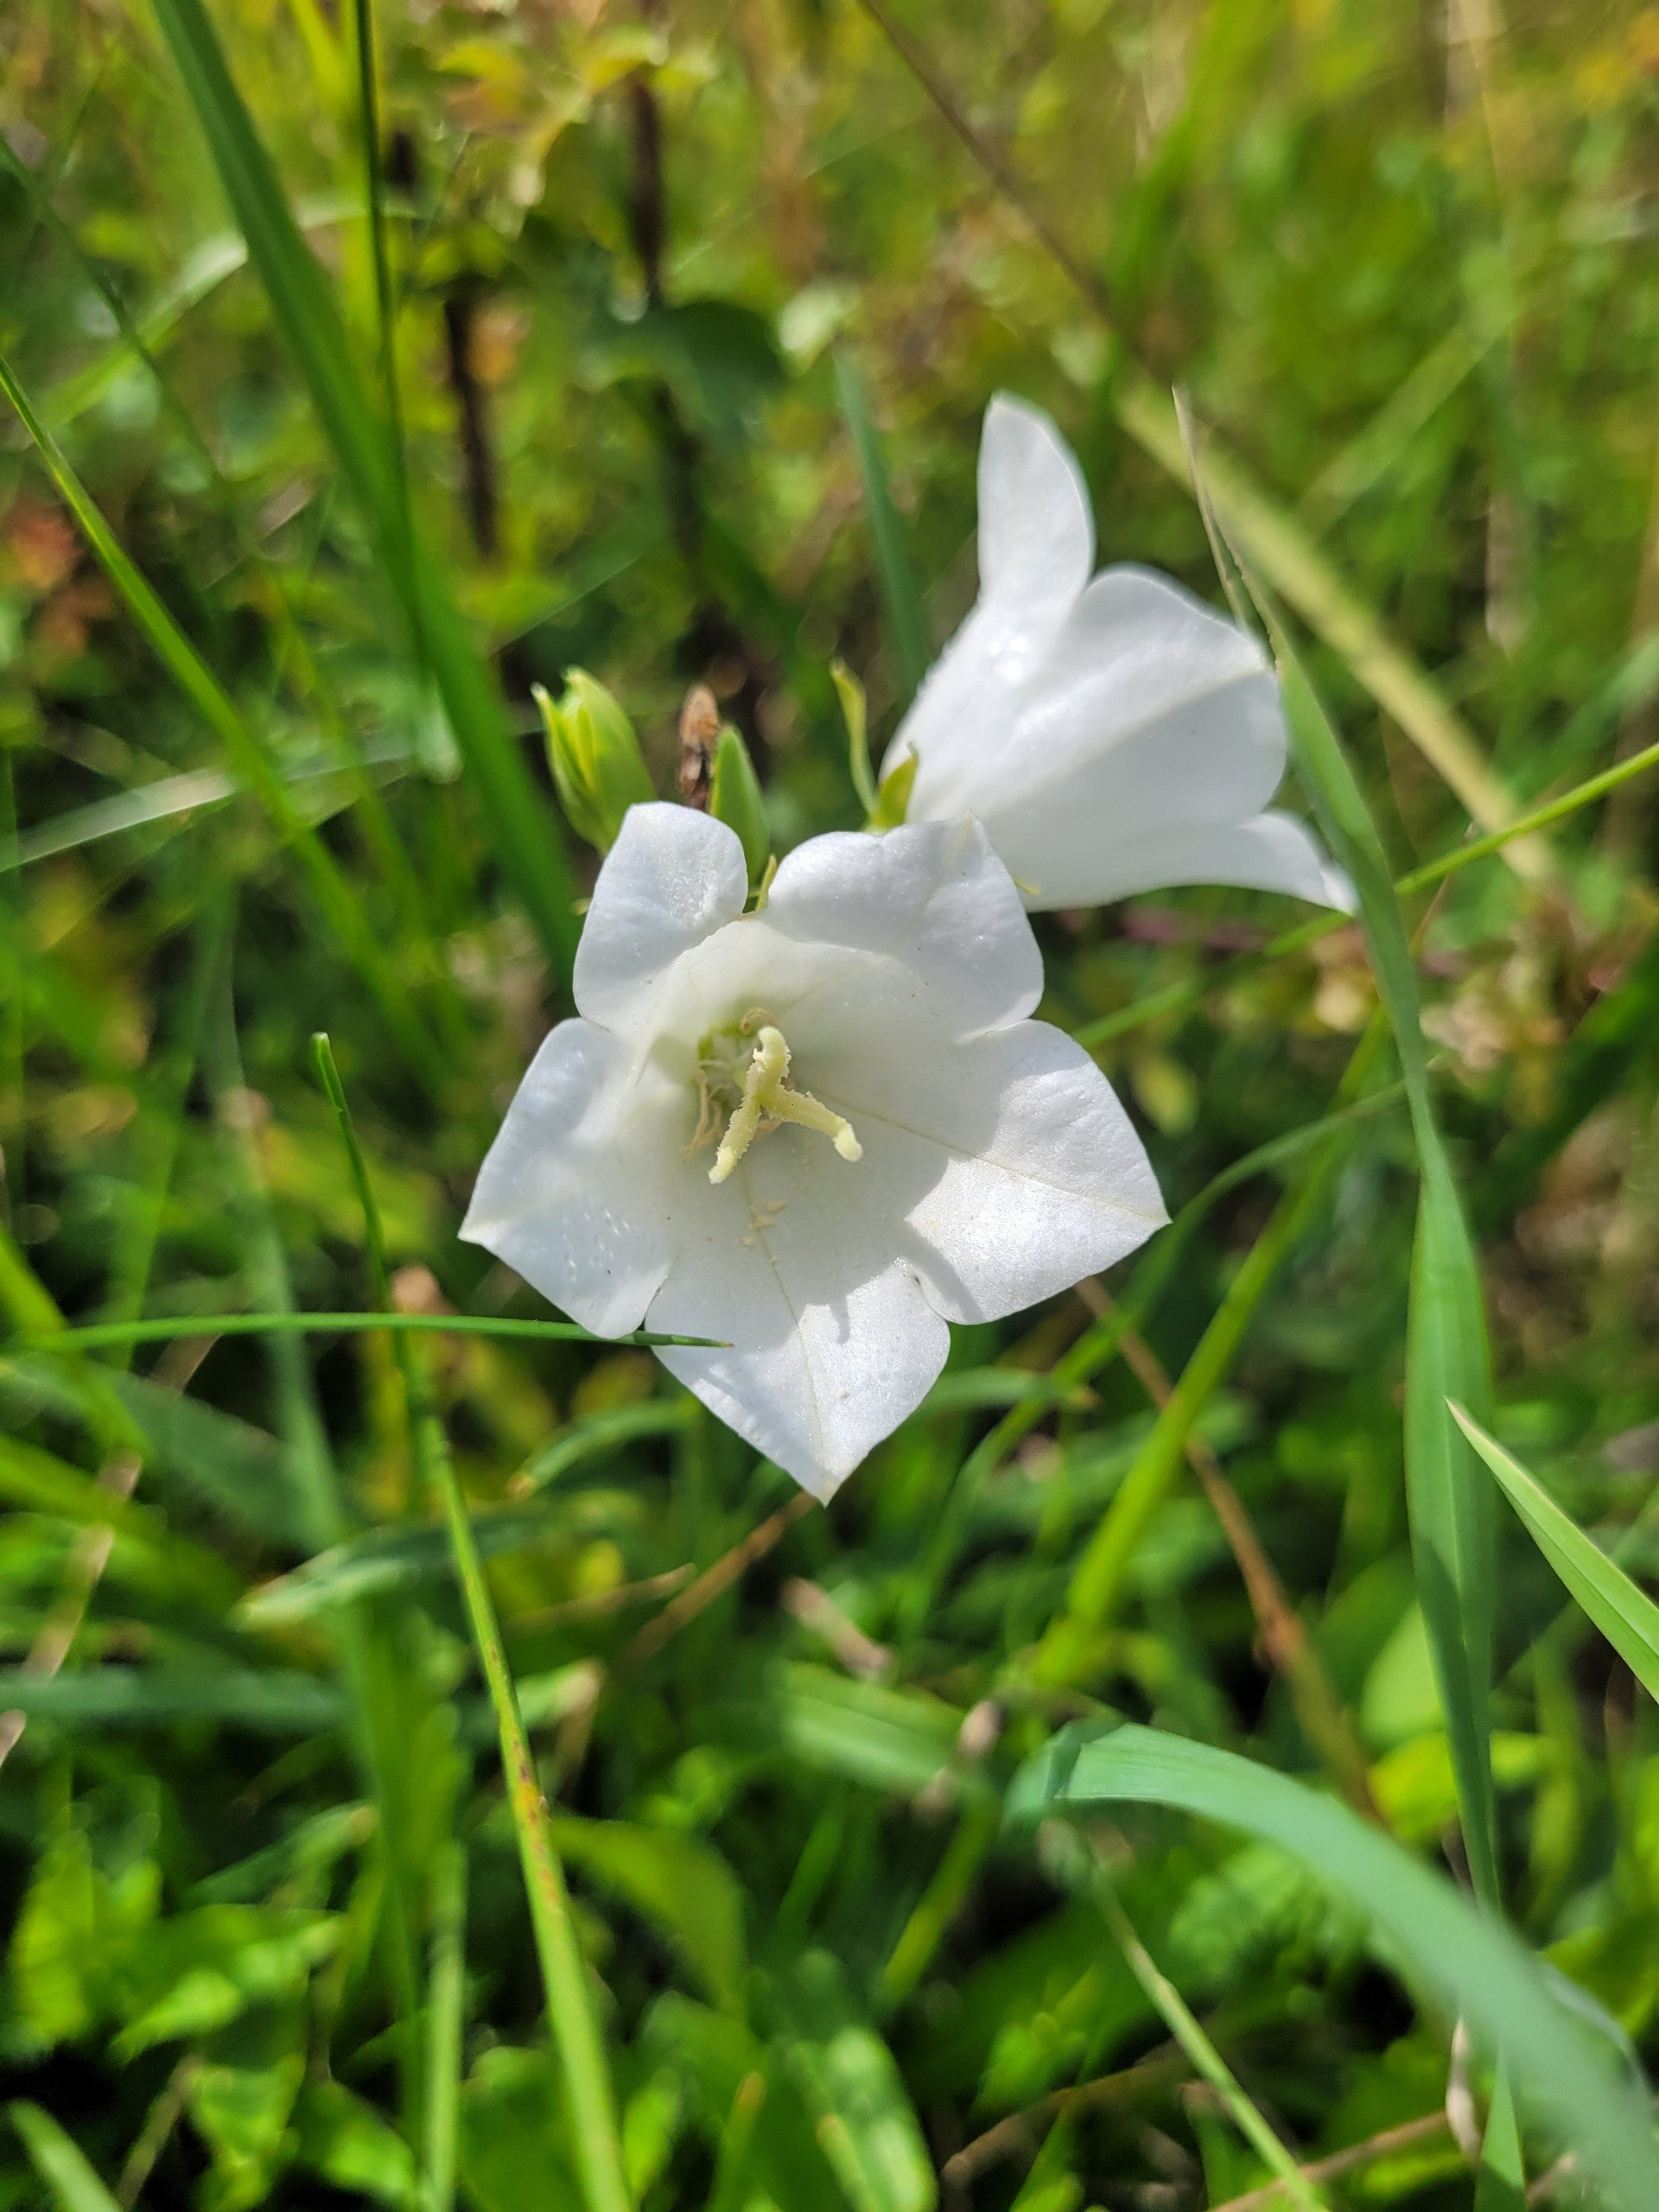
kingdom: Plantae
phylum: Tracheophyta
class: Magnoliopsida
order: Asterales
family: Campanulaceae
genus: Campanula
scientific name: Campanula persicifolia
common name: Smalbladet klokke
